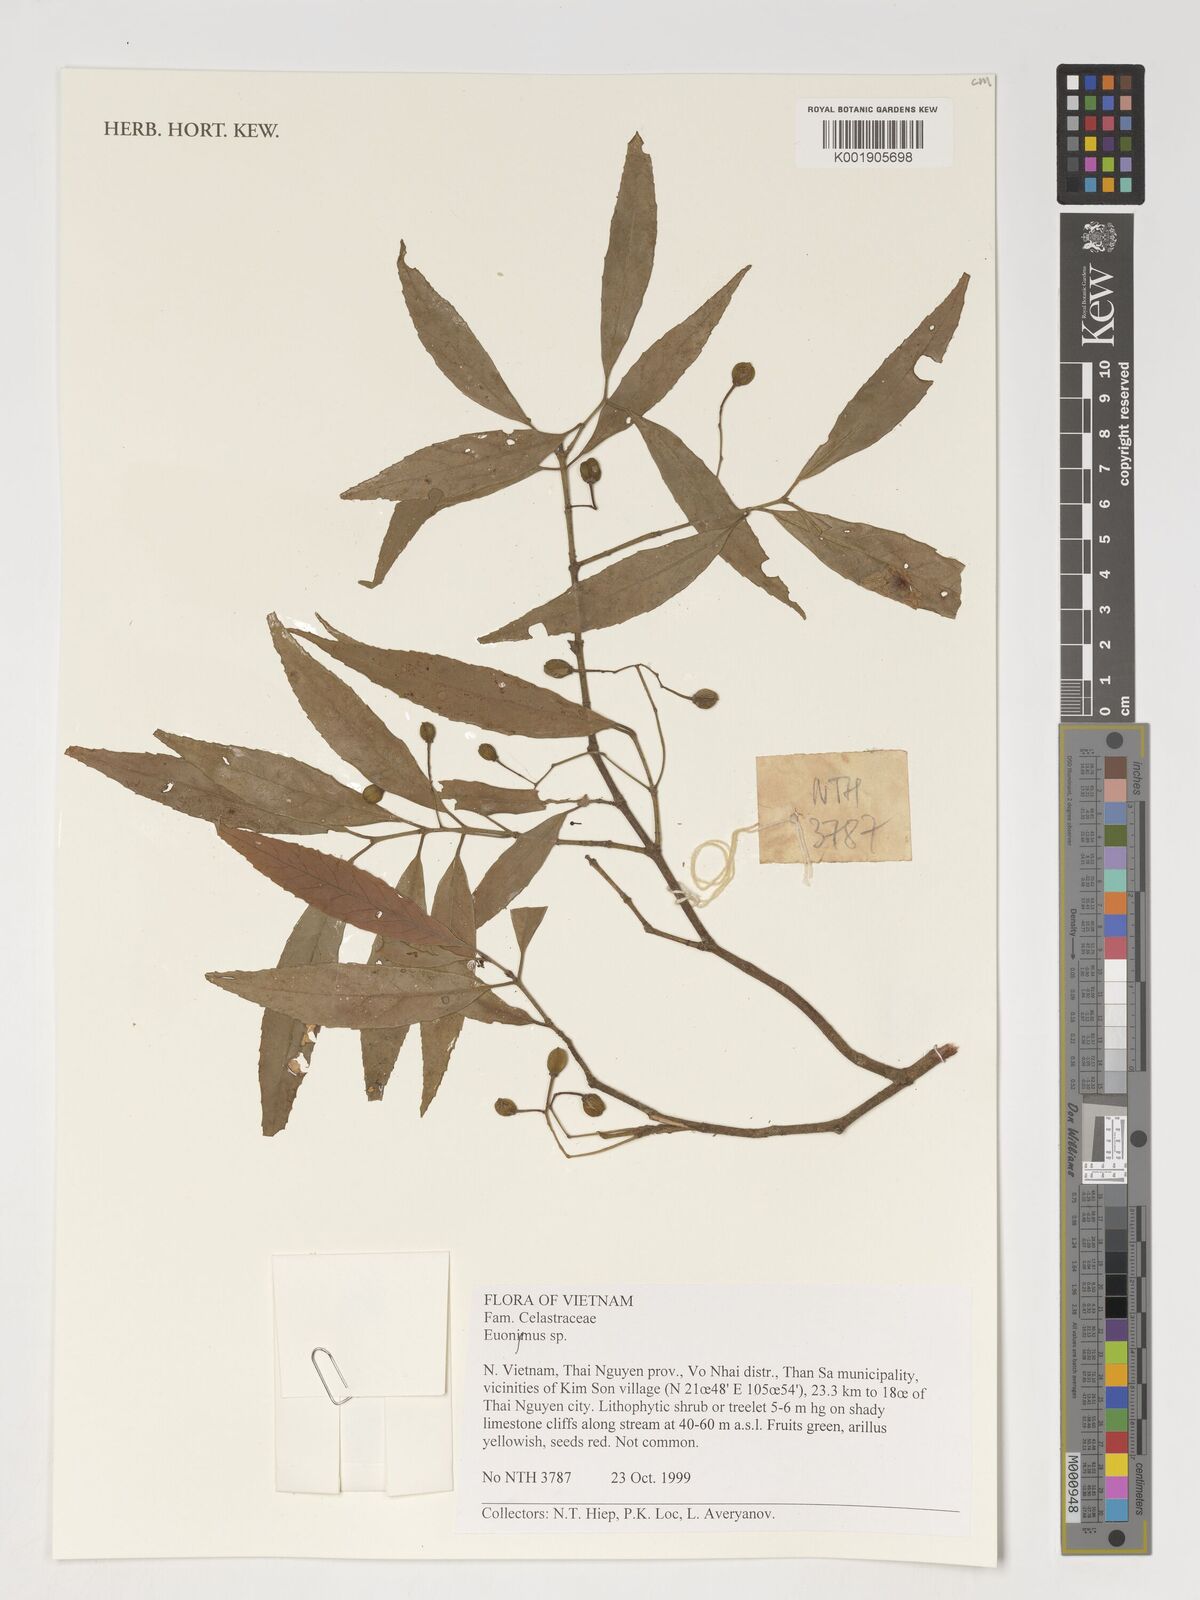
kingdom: Plantae
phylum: Tracheophyta
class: Magnoliopsida
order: Celastrales
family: Celastraceae
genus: Euonymus
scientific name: Euonymus
